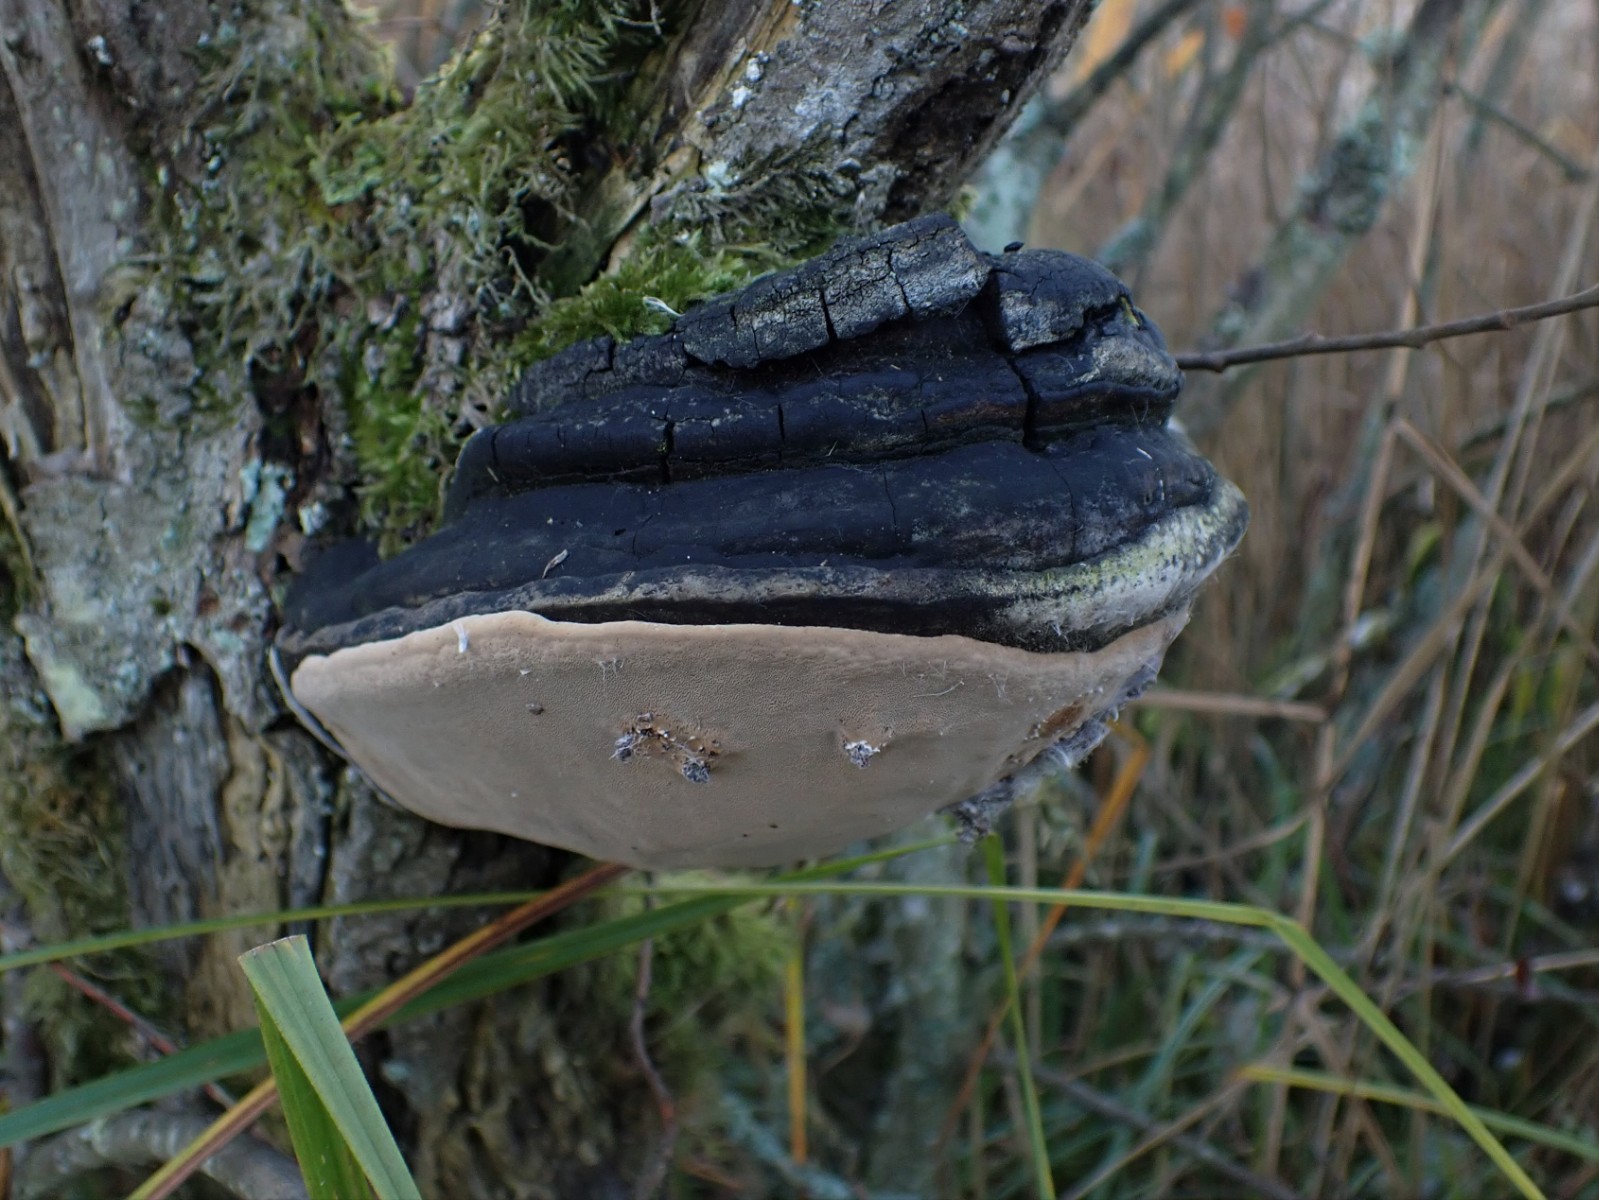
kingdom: Fungi
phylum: Basidiomycota
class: Agaricomycetes
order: Hymenochaetales
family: Hymenochaetaceae
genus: Phellinus
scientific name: Phellinus igniarius
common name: almindelig ildporesvamp
